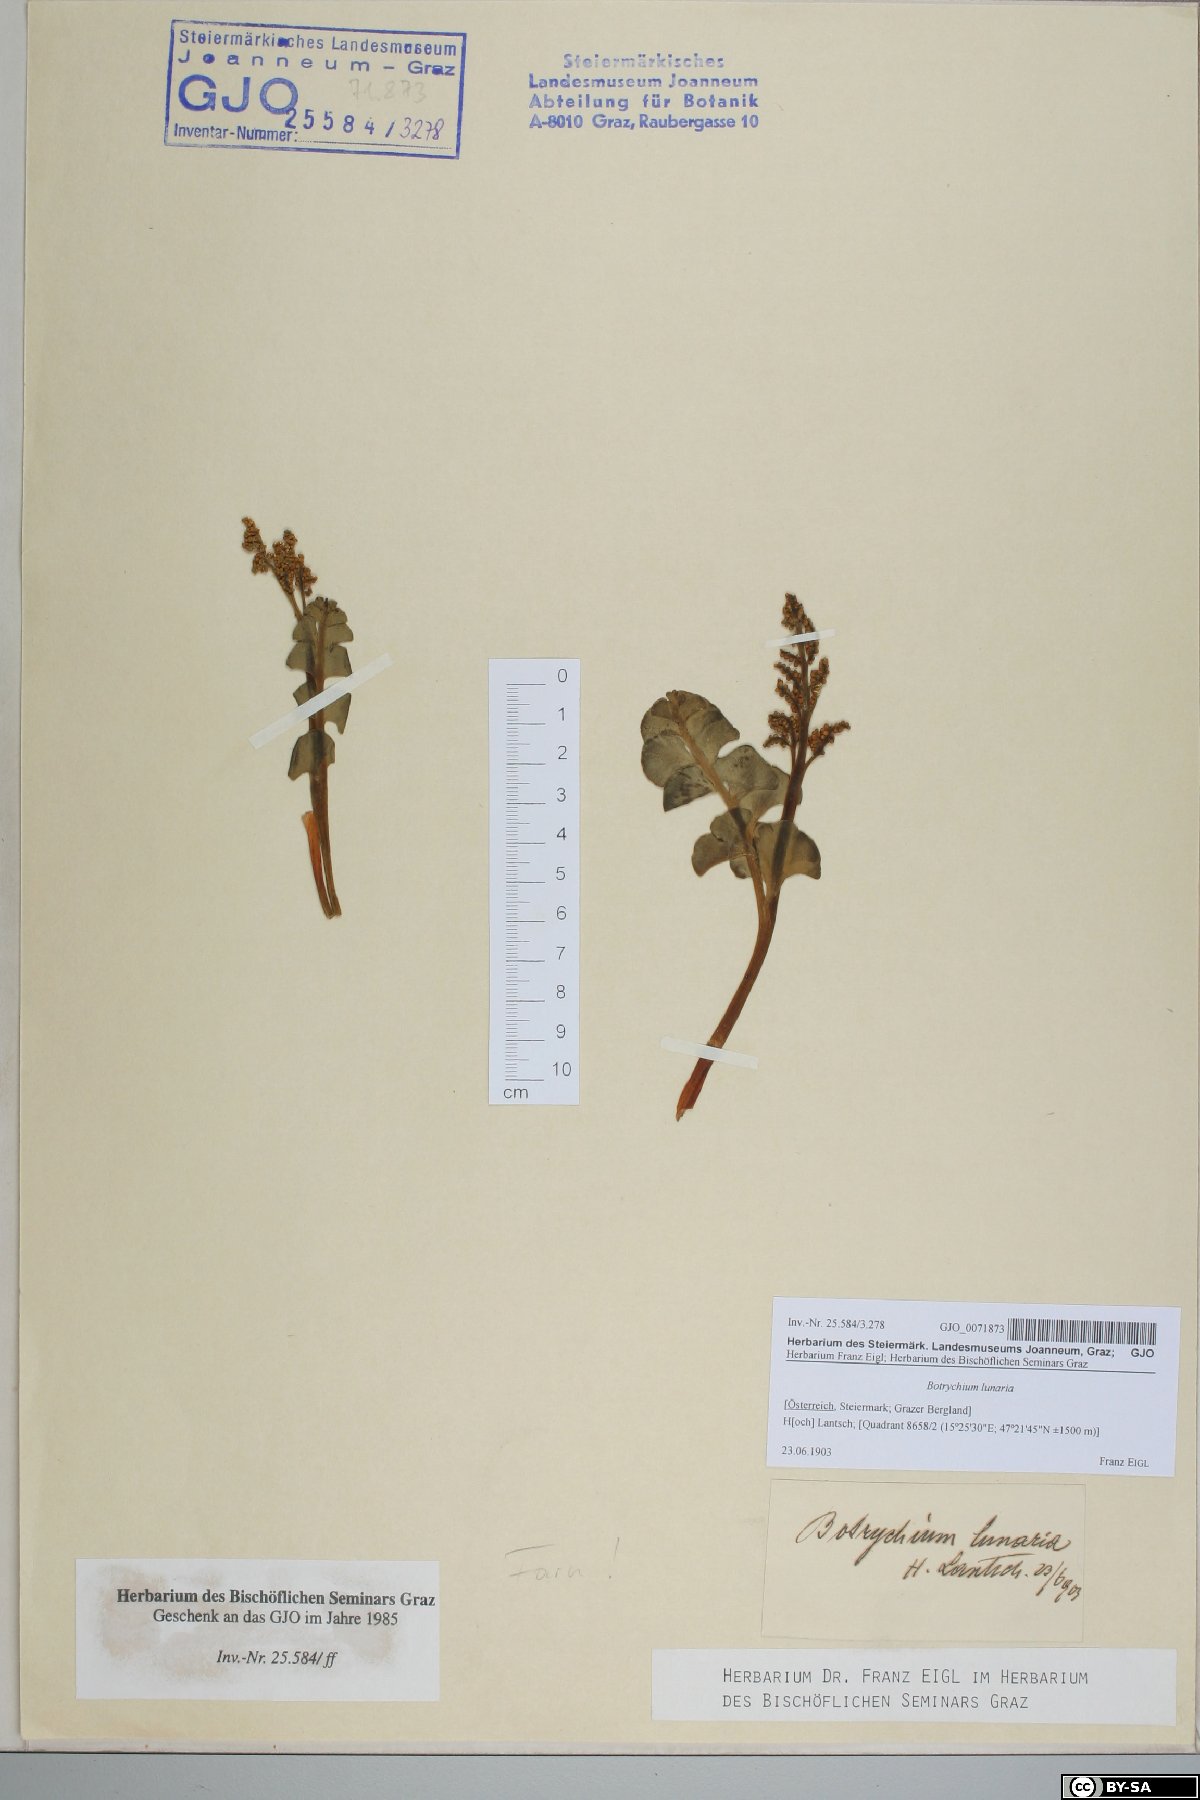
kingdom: Plantae
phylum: Tracheophyta
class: Polypodiopsida
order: Ophioglossales
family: Ophioglossaceae
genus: Botrychium
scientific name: Botrychium lunaria
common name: Moonwort
